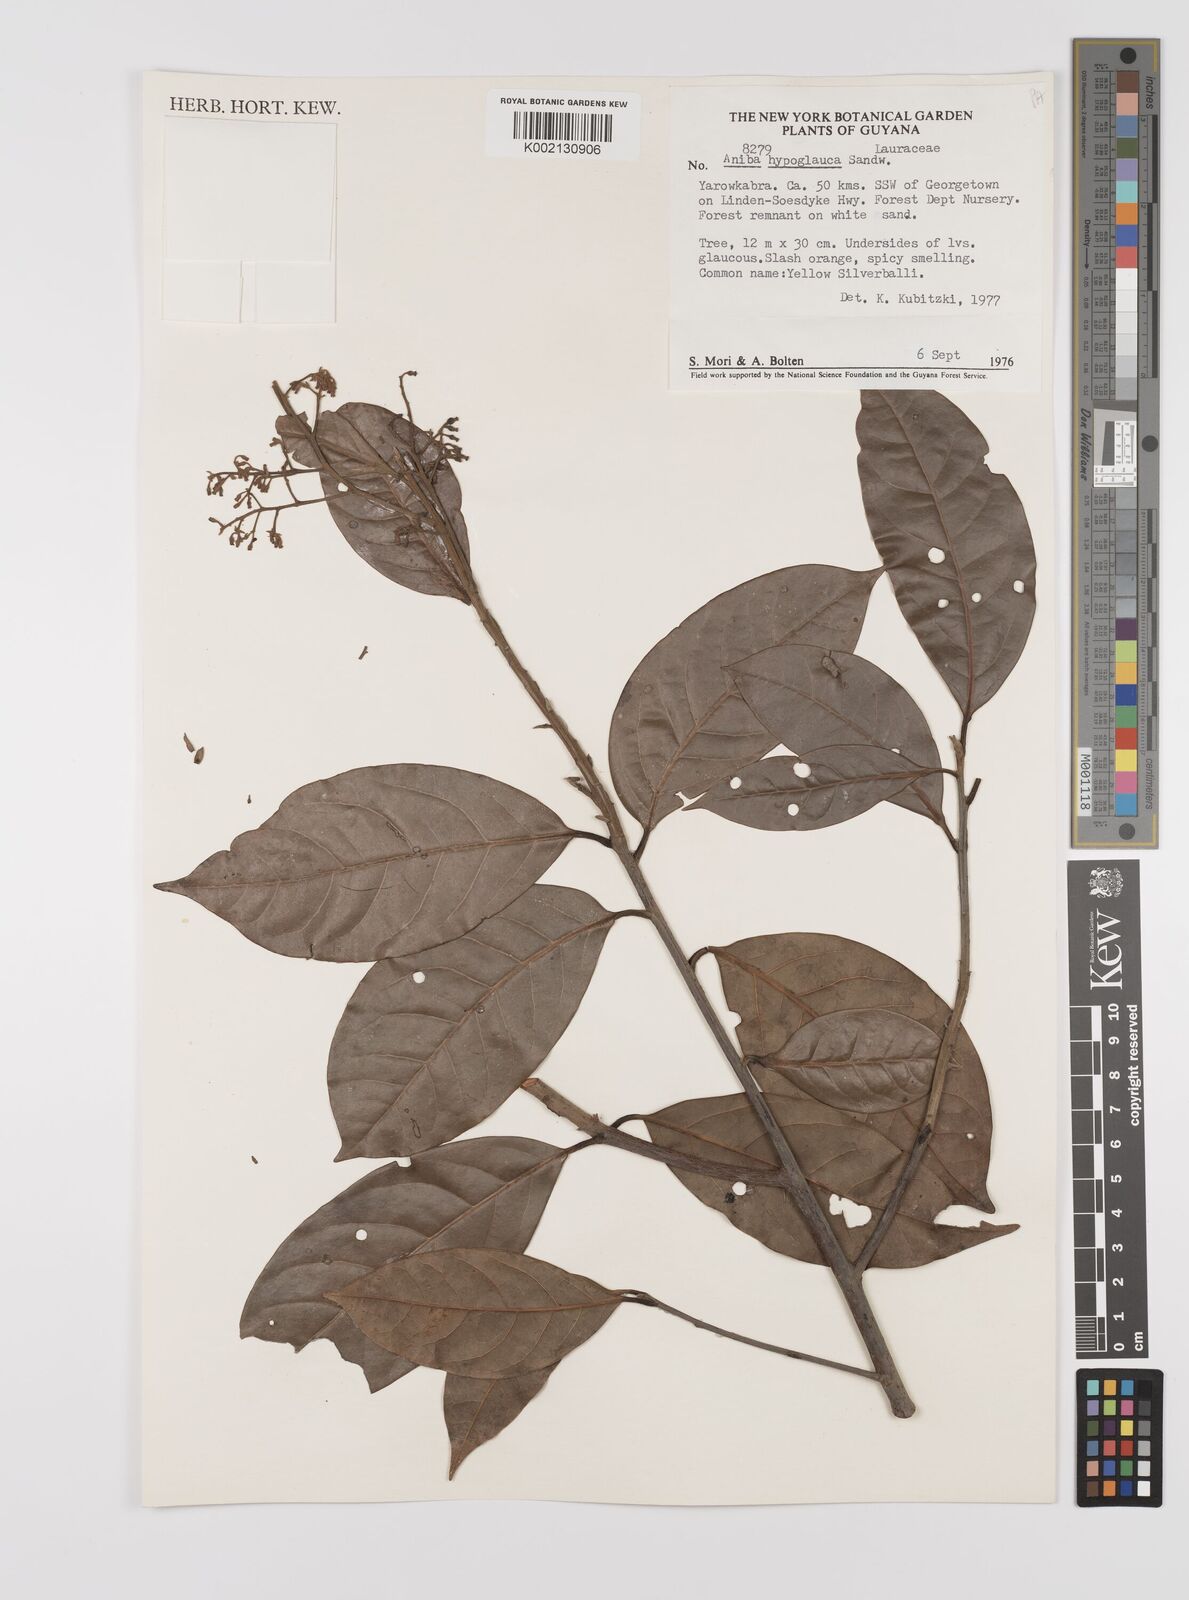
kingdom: Plantae
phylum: Tracheophyta
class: Magnoliopsida
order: Laurales
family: Lauraceae
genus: Aniba
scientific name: Aniba hypoglauca
